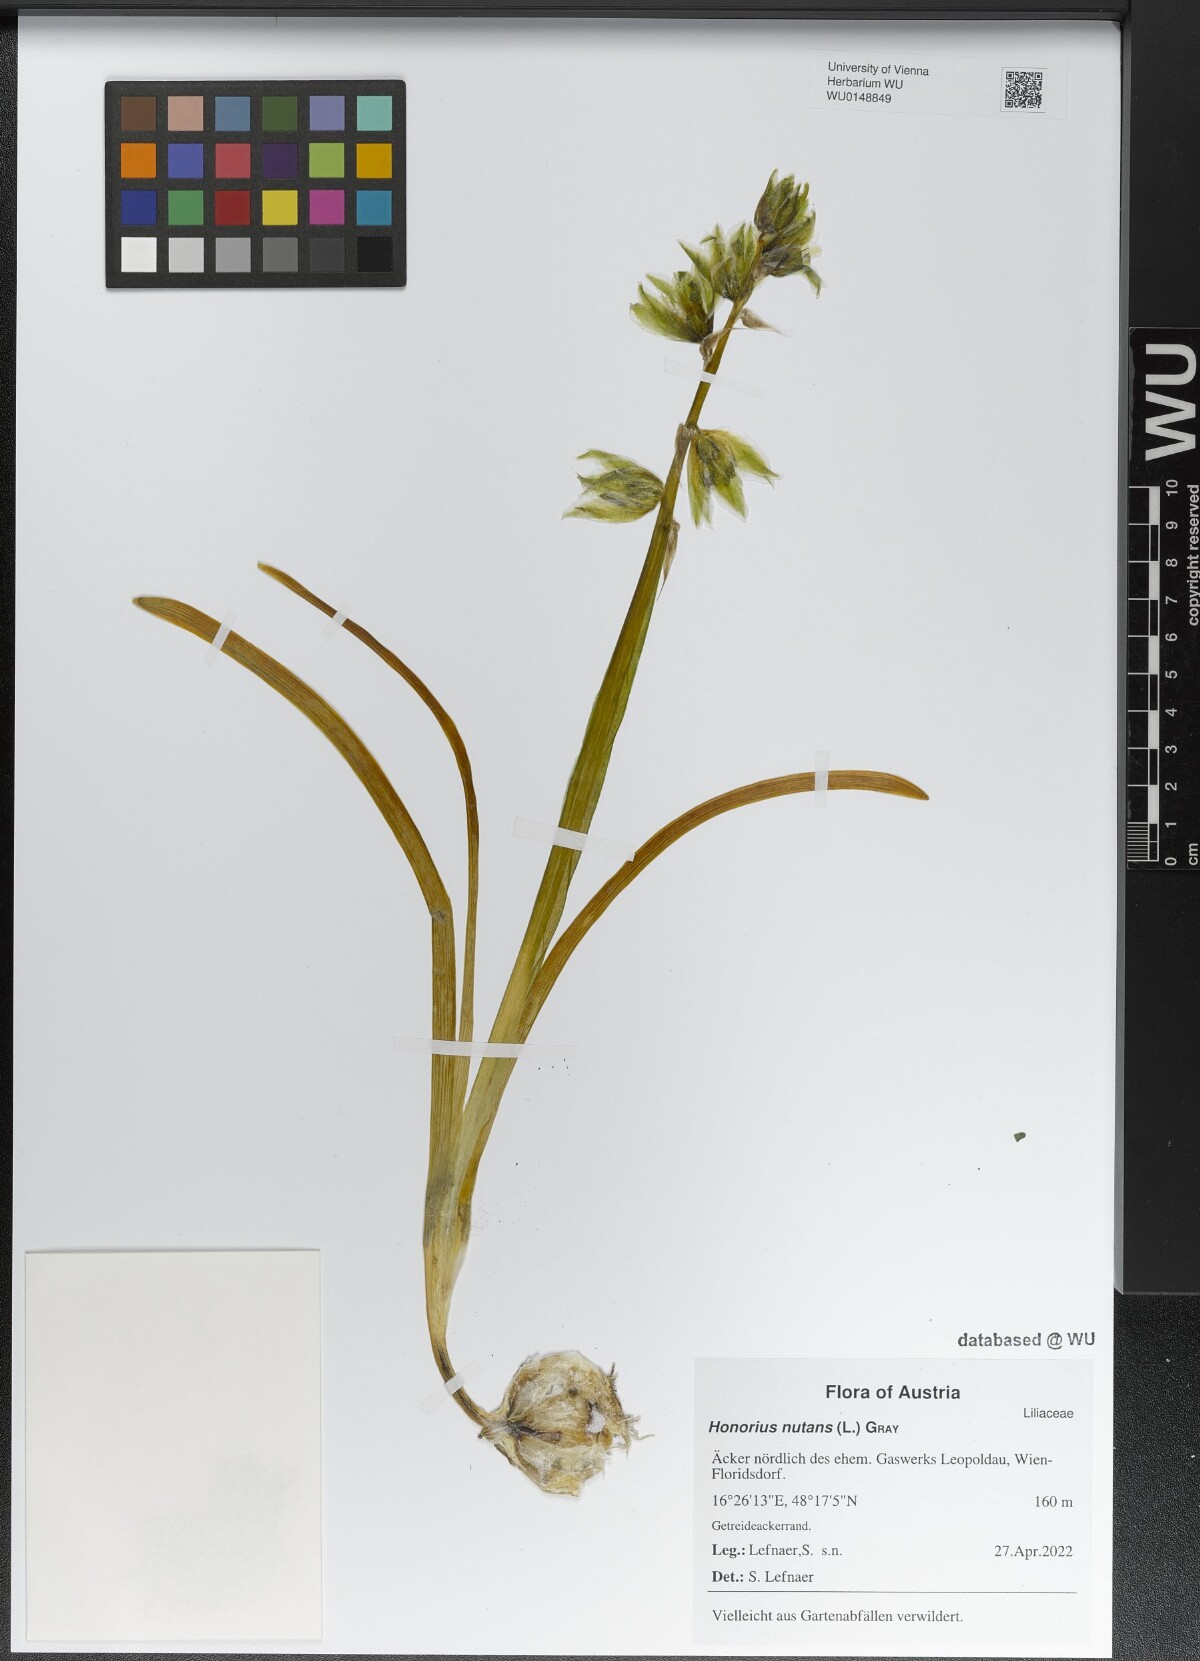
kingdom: Plantae
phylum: Tracheophyta
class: Liliopsida
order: Asparagales
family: Asparagaceae
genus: Ornithogalum
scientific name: Ornithogalum nutans
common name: Drooping star-of-bethlehem
